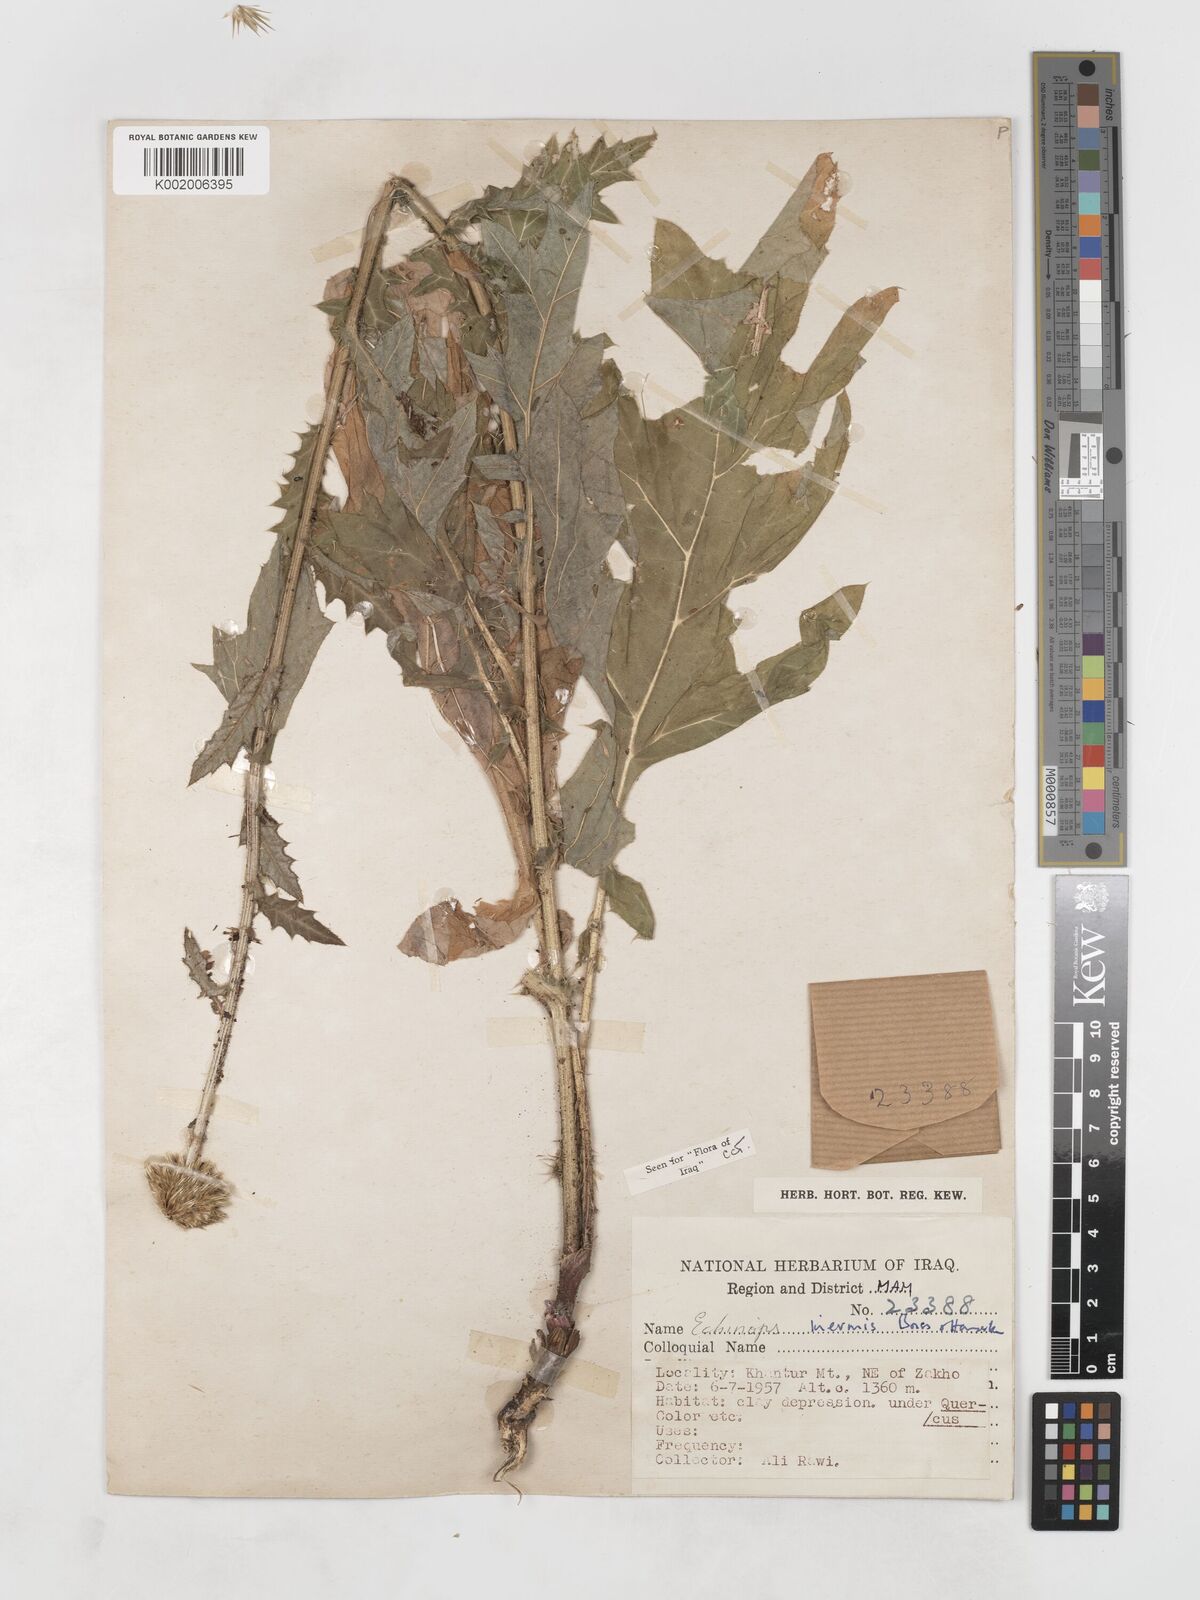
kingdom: Plantae
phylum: Tracheophyta
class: Magnoliopsida
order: Asterales
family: Asteraceae
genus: Echinops
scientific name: Echinops inermis
